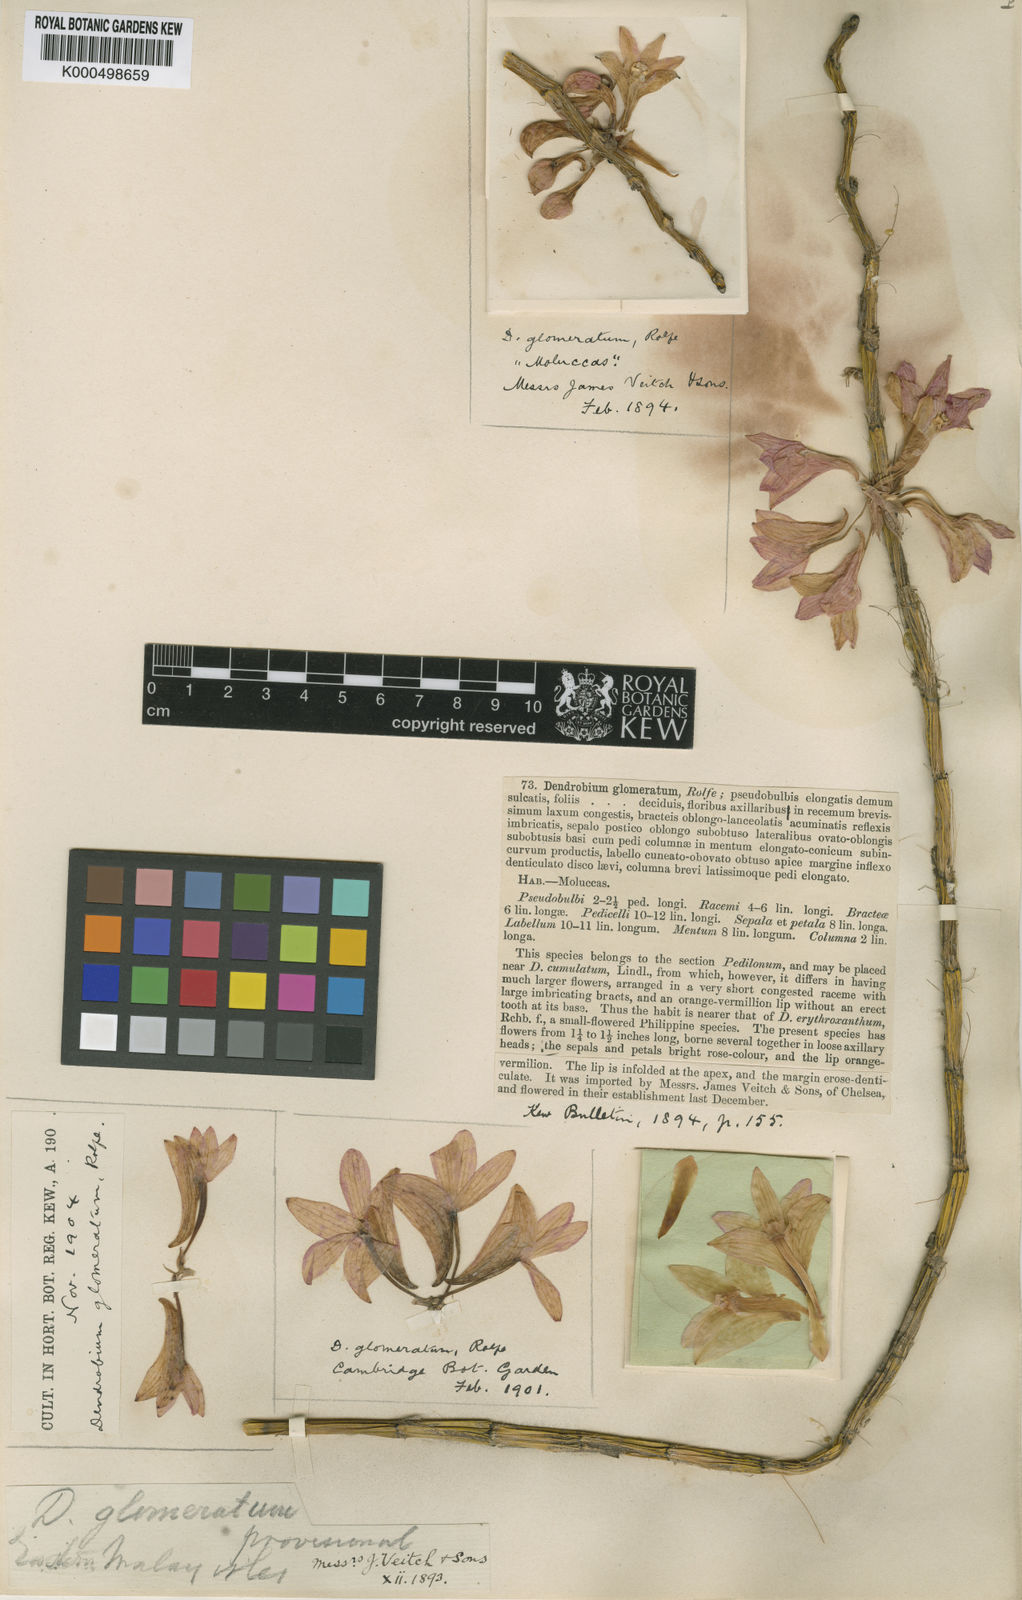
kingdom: Plantae
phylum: Tracheophyta
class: Liliopsida
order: Asparagales
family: Orchidaceae
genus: Dendrobium
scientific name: Dendrobium
